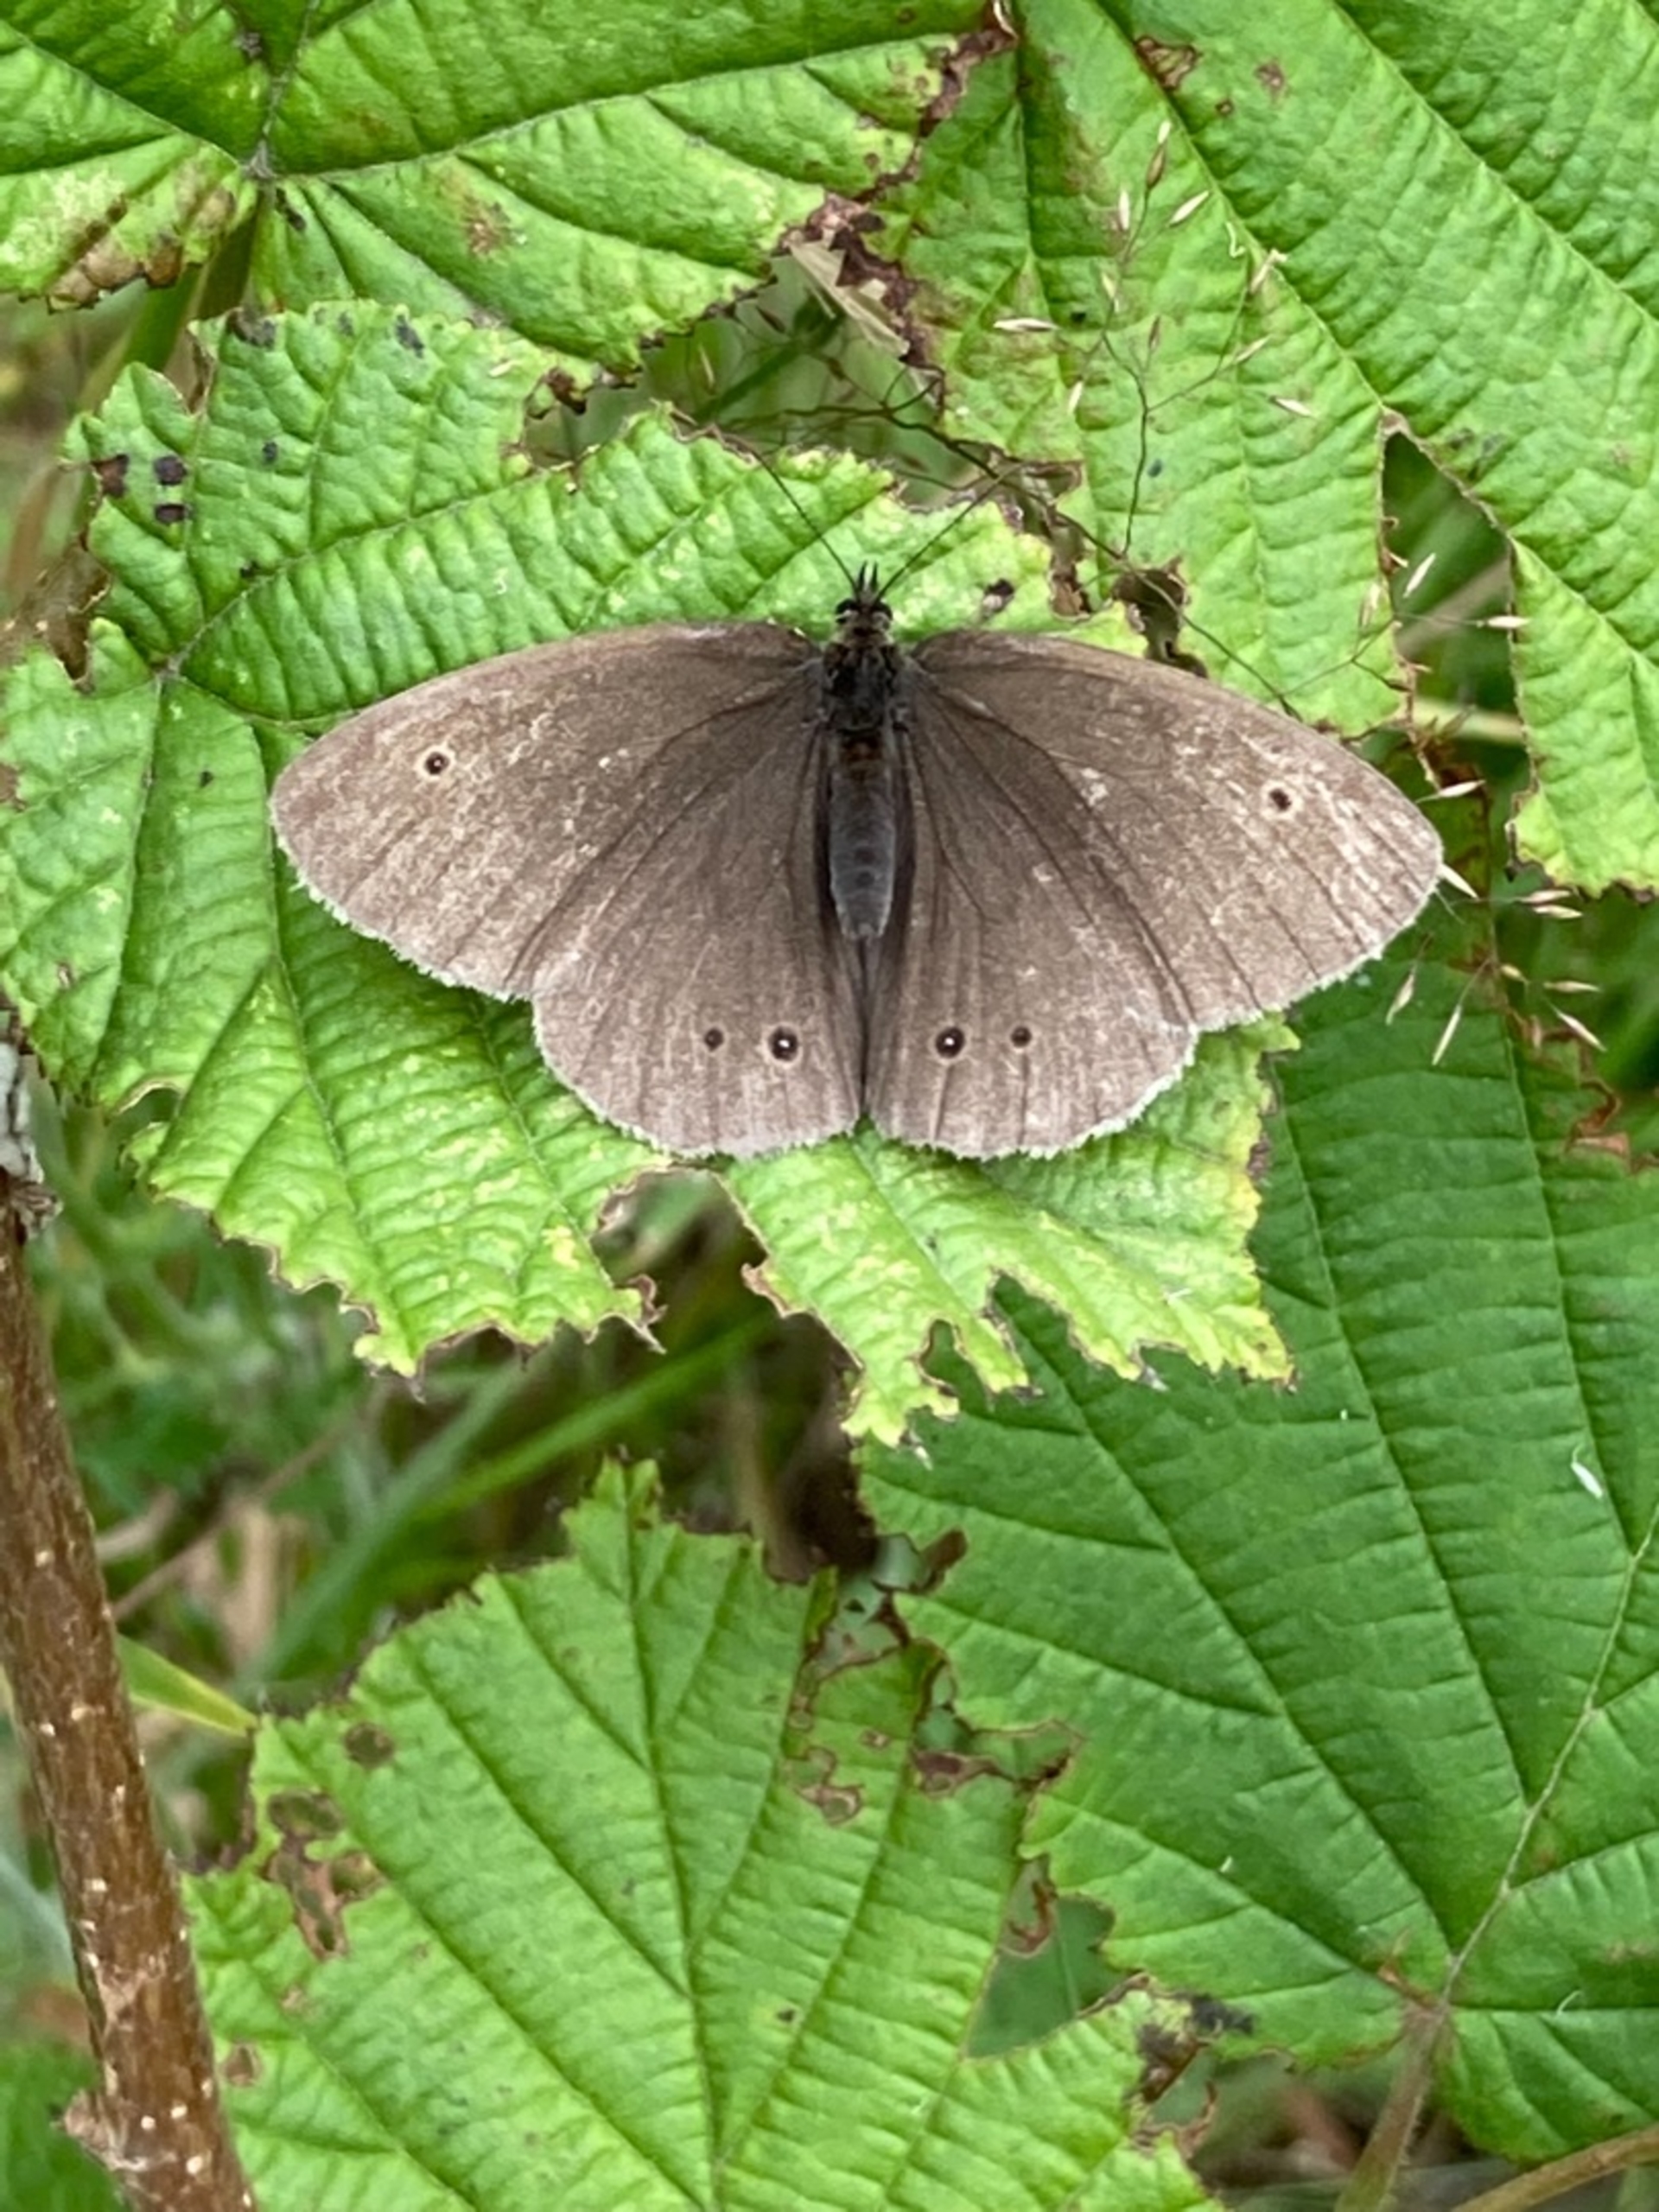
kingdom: Animalia
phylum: Arthropoda
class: Insecta
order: Lepidoptera
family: Nymphalidae
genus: Aphantopus
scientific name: Aphantopus hyperantus
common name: Engrandøje
